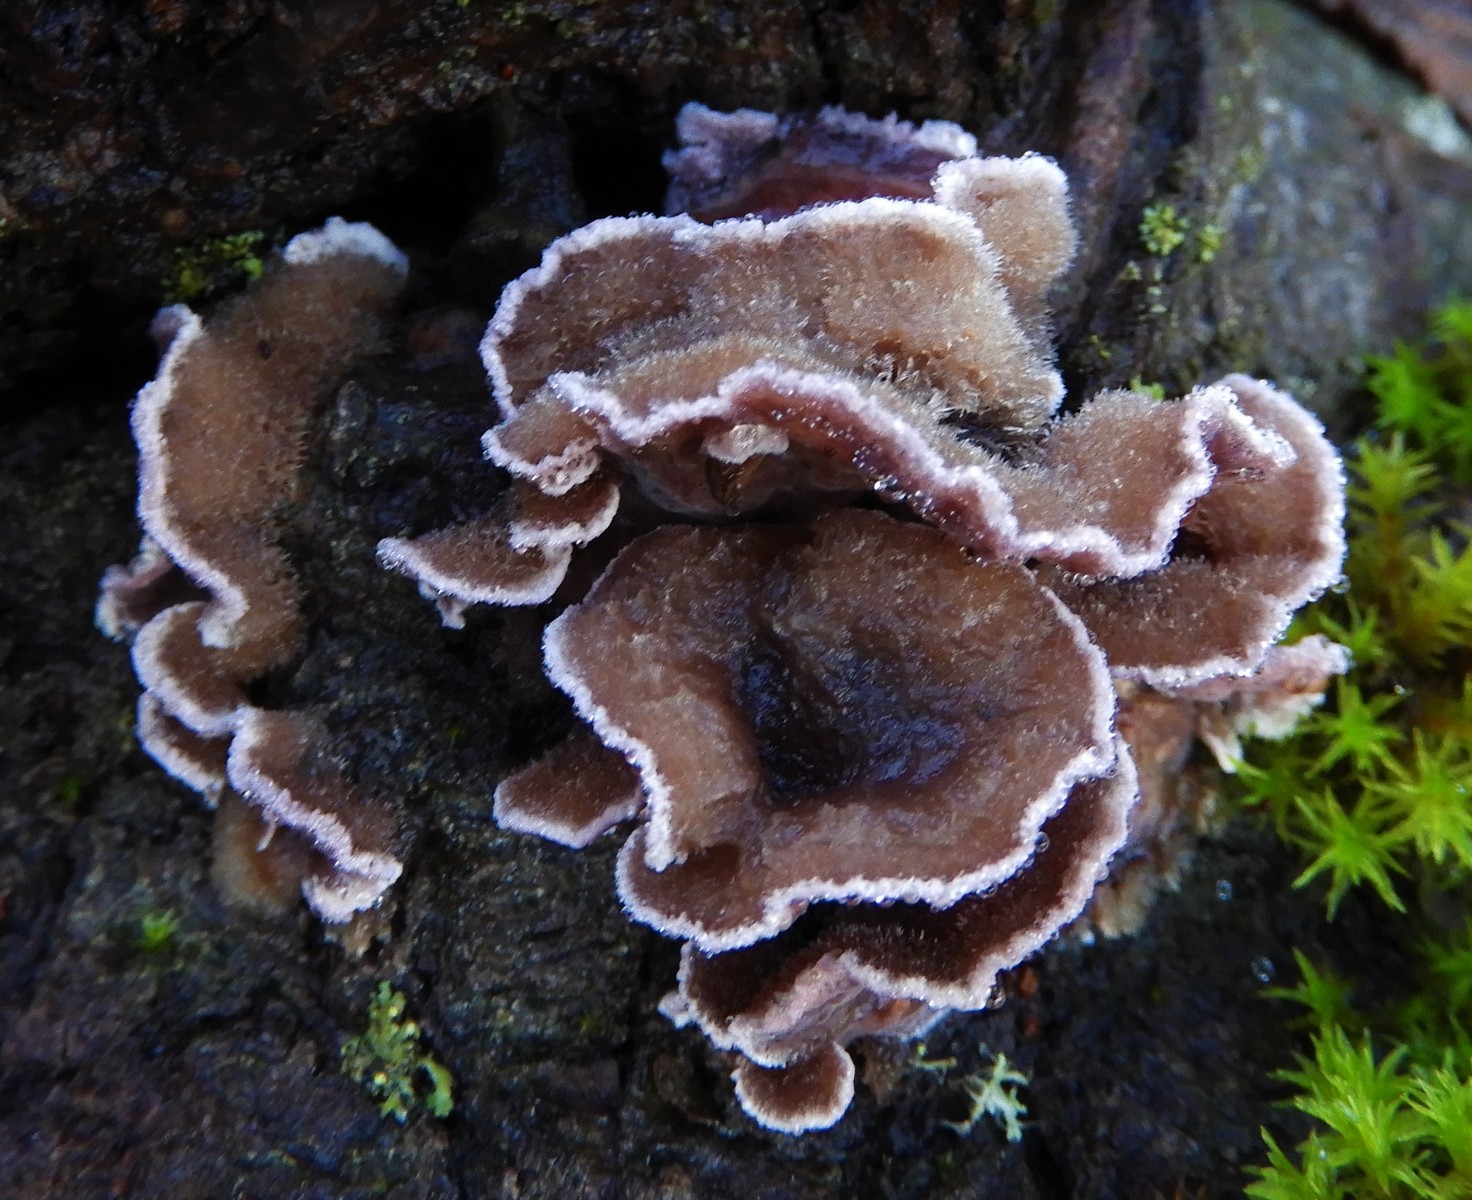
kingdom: Fungi
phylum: Basidiomycota
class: Agaricomycetes
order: Agaricales
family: Cyphellaceae
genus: Chondrostereum
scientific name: Chondrostereum purpureum
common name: purpurlædersvamp
